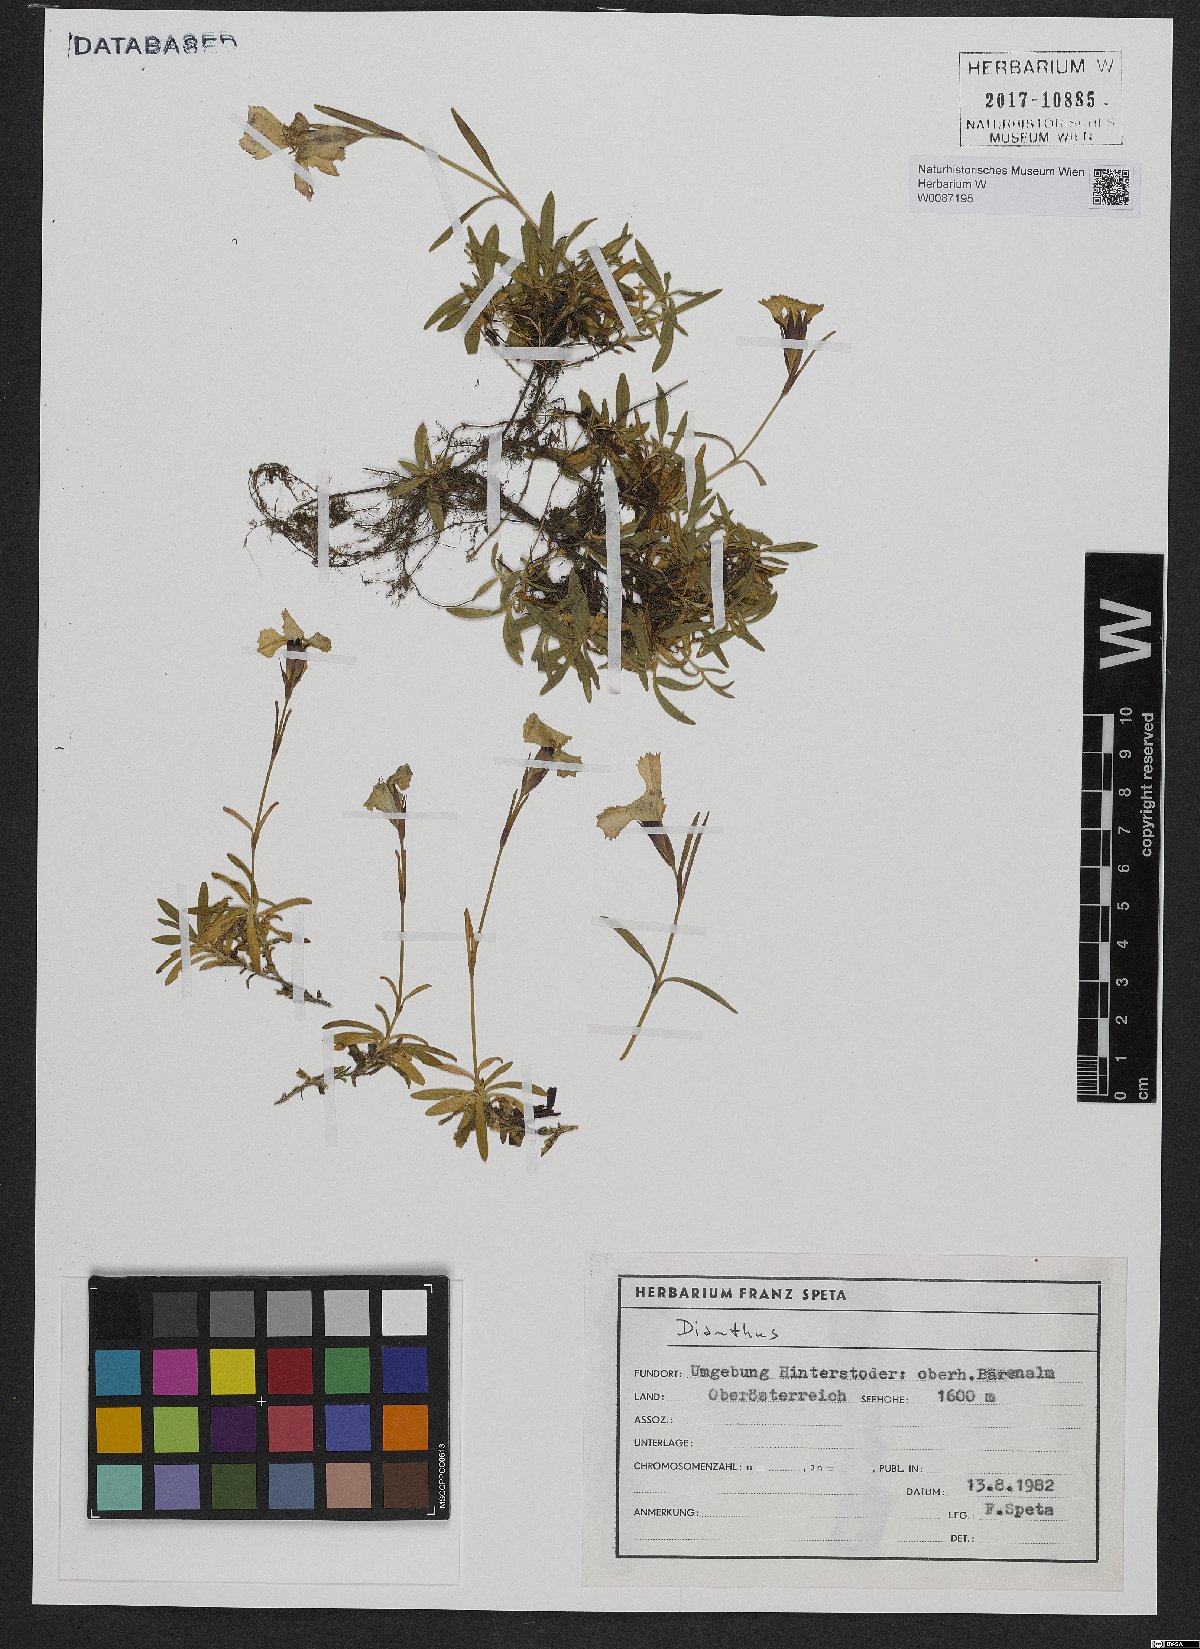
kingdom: Plantae
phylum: Tracheophyta
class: Magnoliopsida
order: Caryophyllales
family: Caryophyllaceae
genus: Dianthus
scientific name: Dianthus alpinus
